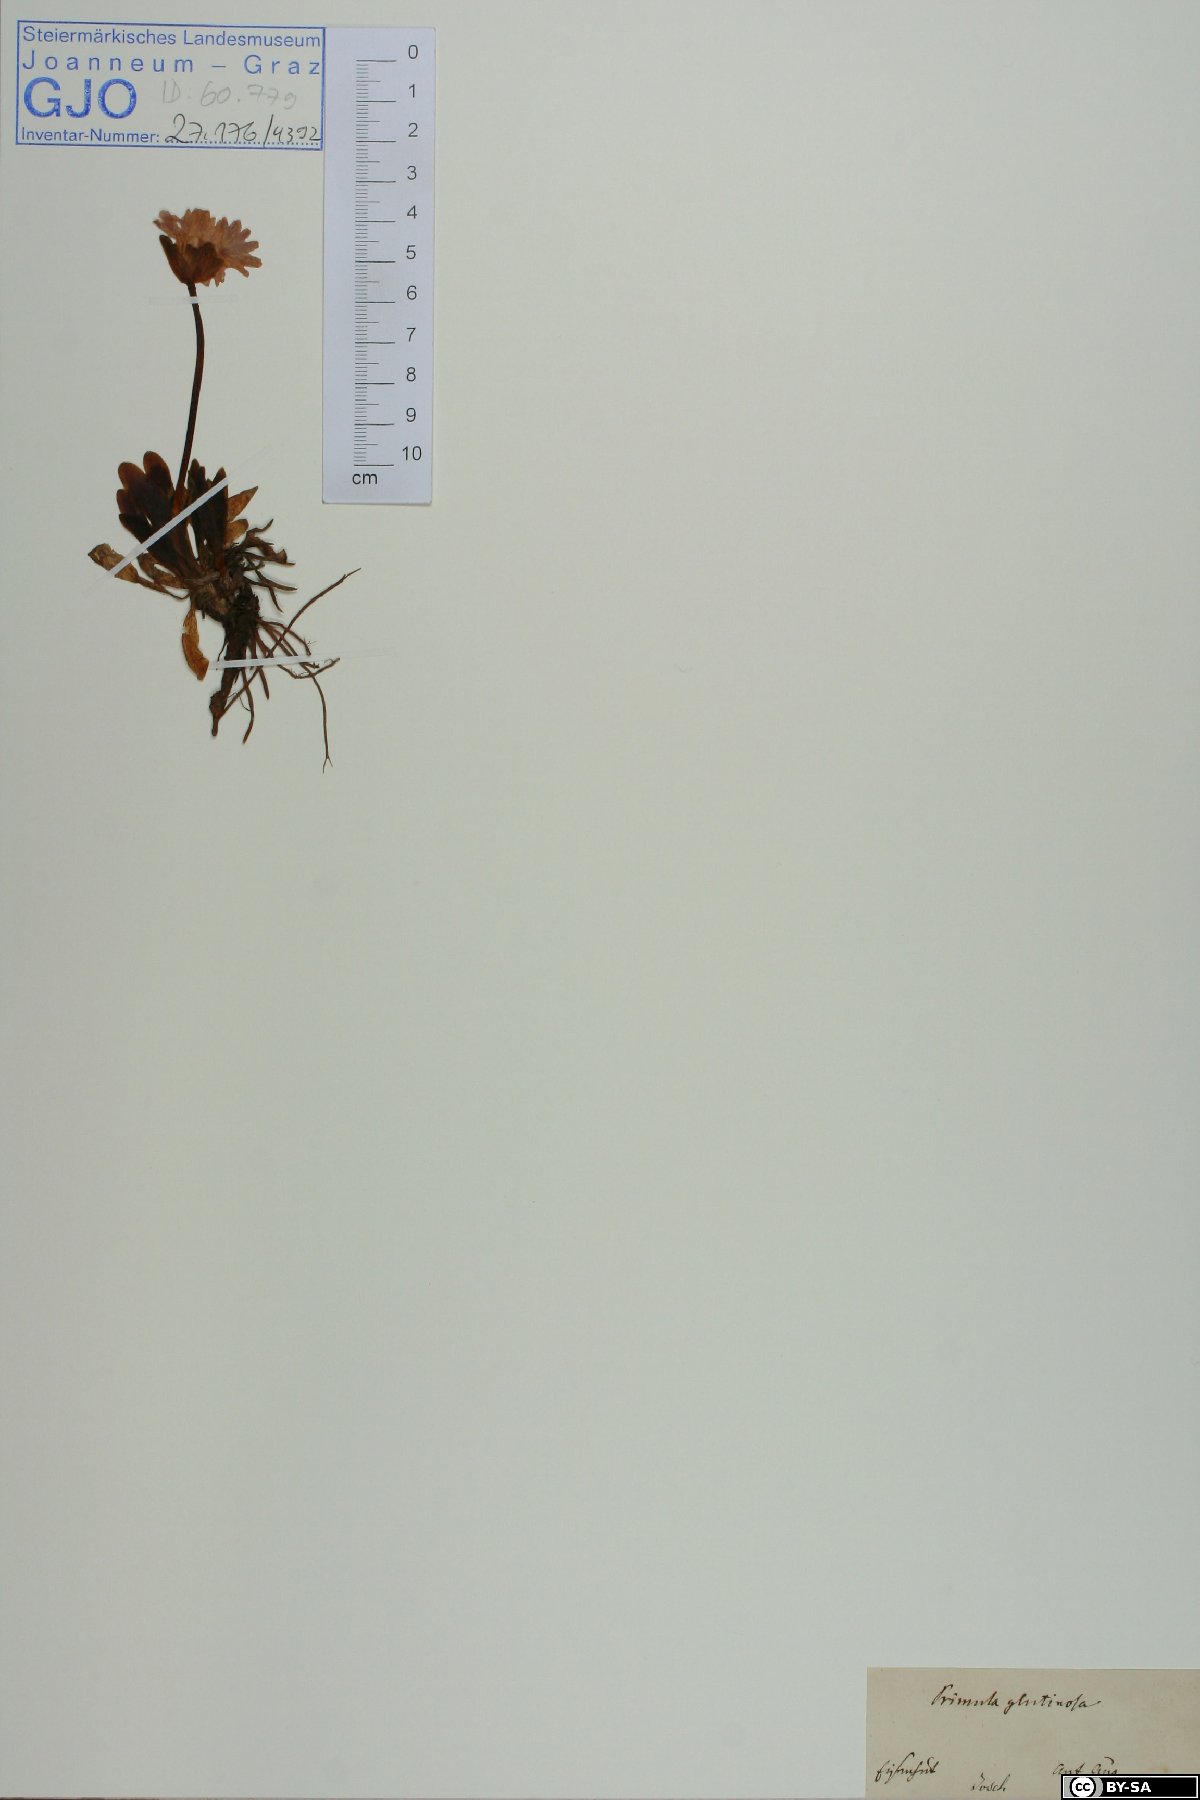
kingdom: Plantae
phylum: Tracheophyta
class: Magnoliopsida
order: Ericales
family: Primulaceae
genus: Primula
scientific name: Primula glutinosa
